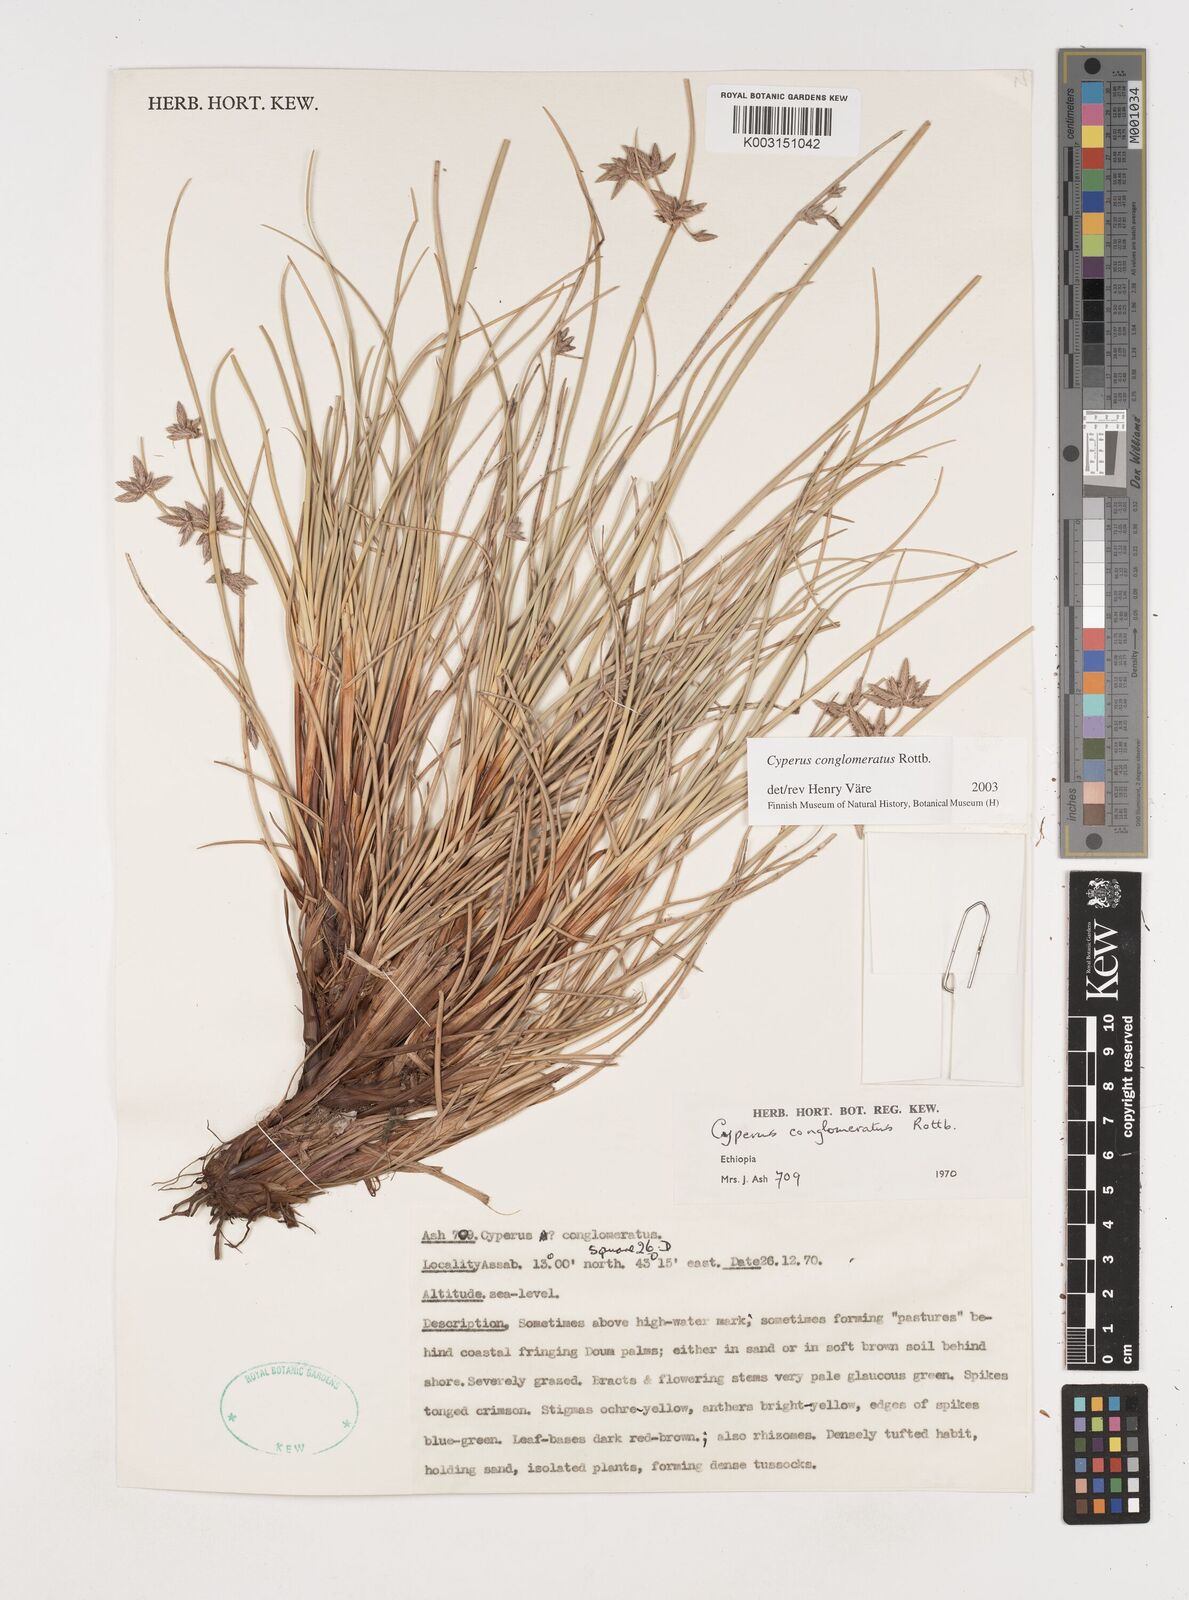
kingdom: Plantae
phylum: Tracheophyta
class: Liliopsida
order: Poales
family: Cyperaceae
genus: Cyperus
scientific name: Cyperus conglomeratus
